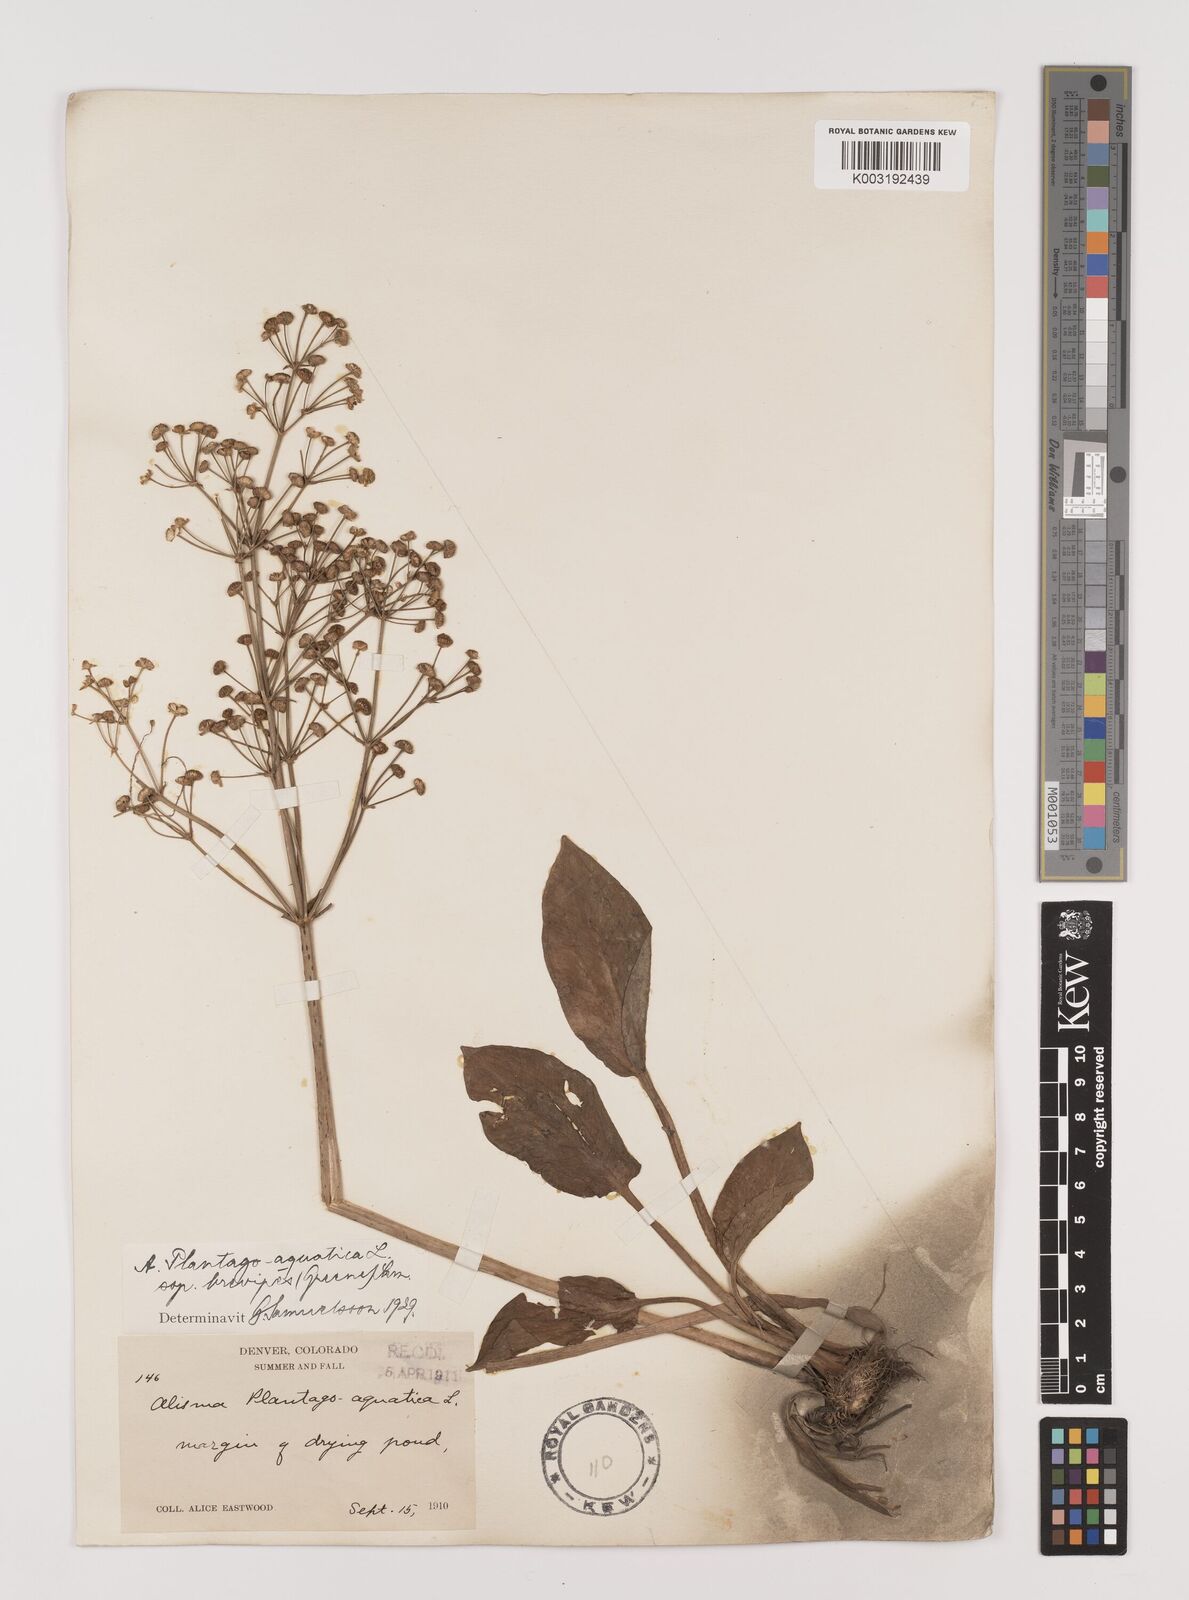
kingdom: Plantae
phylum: Tracheophyta
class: Liliopsida
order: Alismatales
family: Alismataceae
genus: Alisma
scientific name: Alisma triviale
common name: Northern water-plantain
